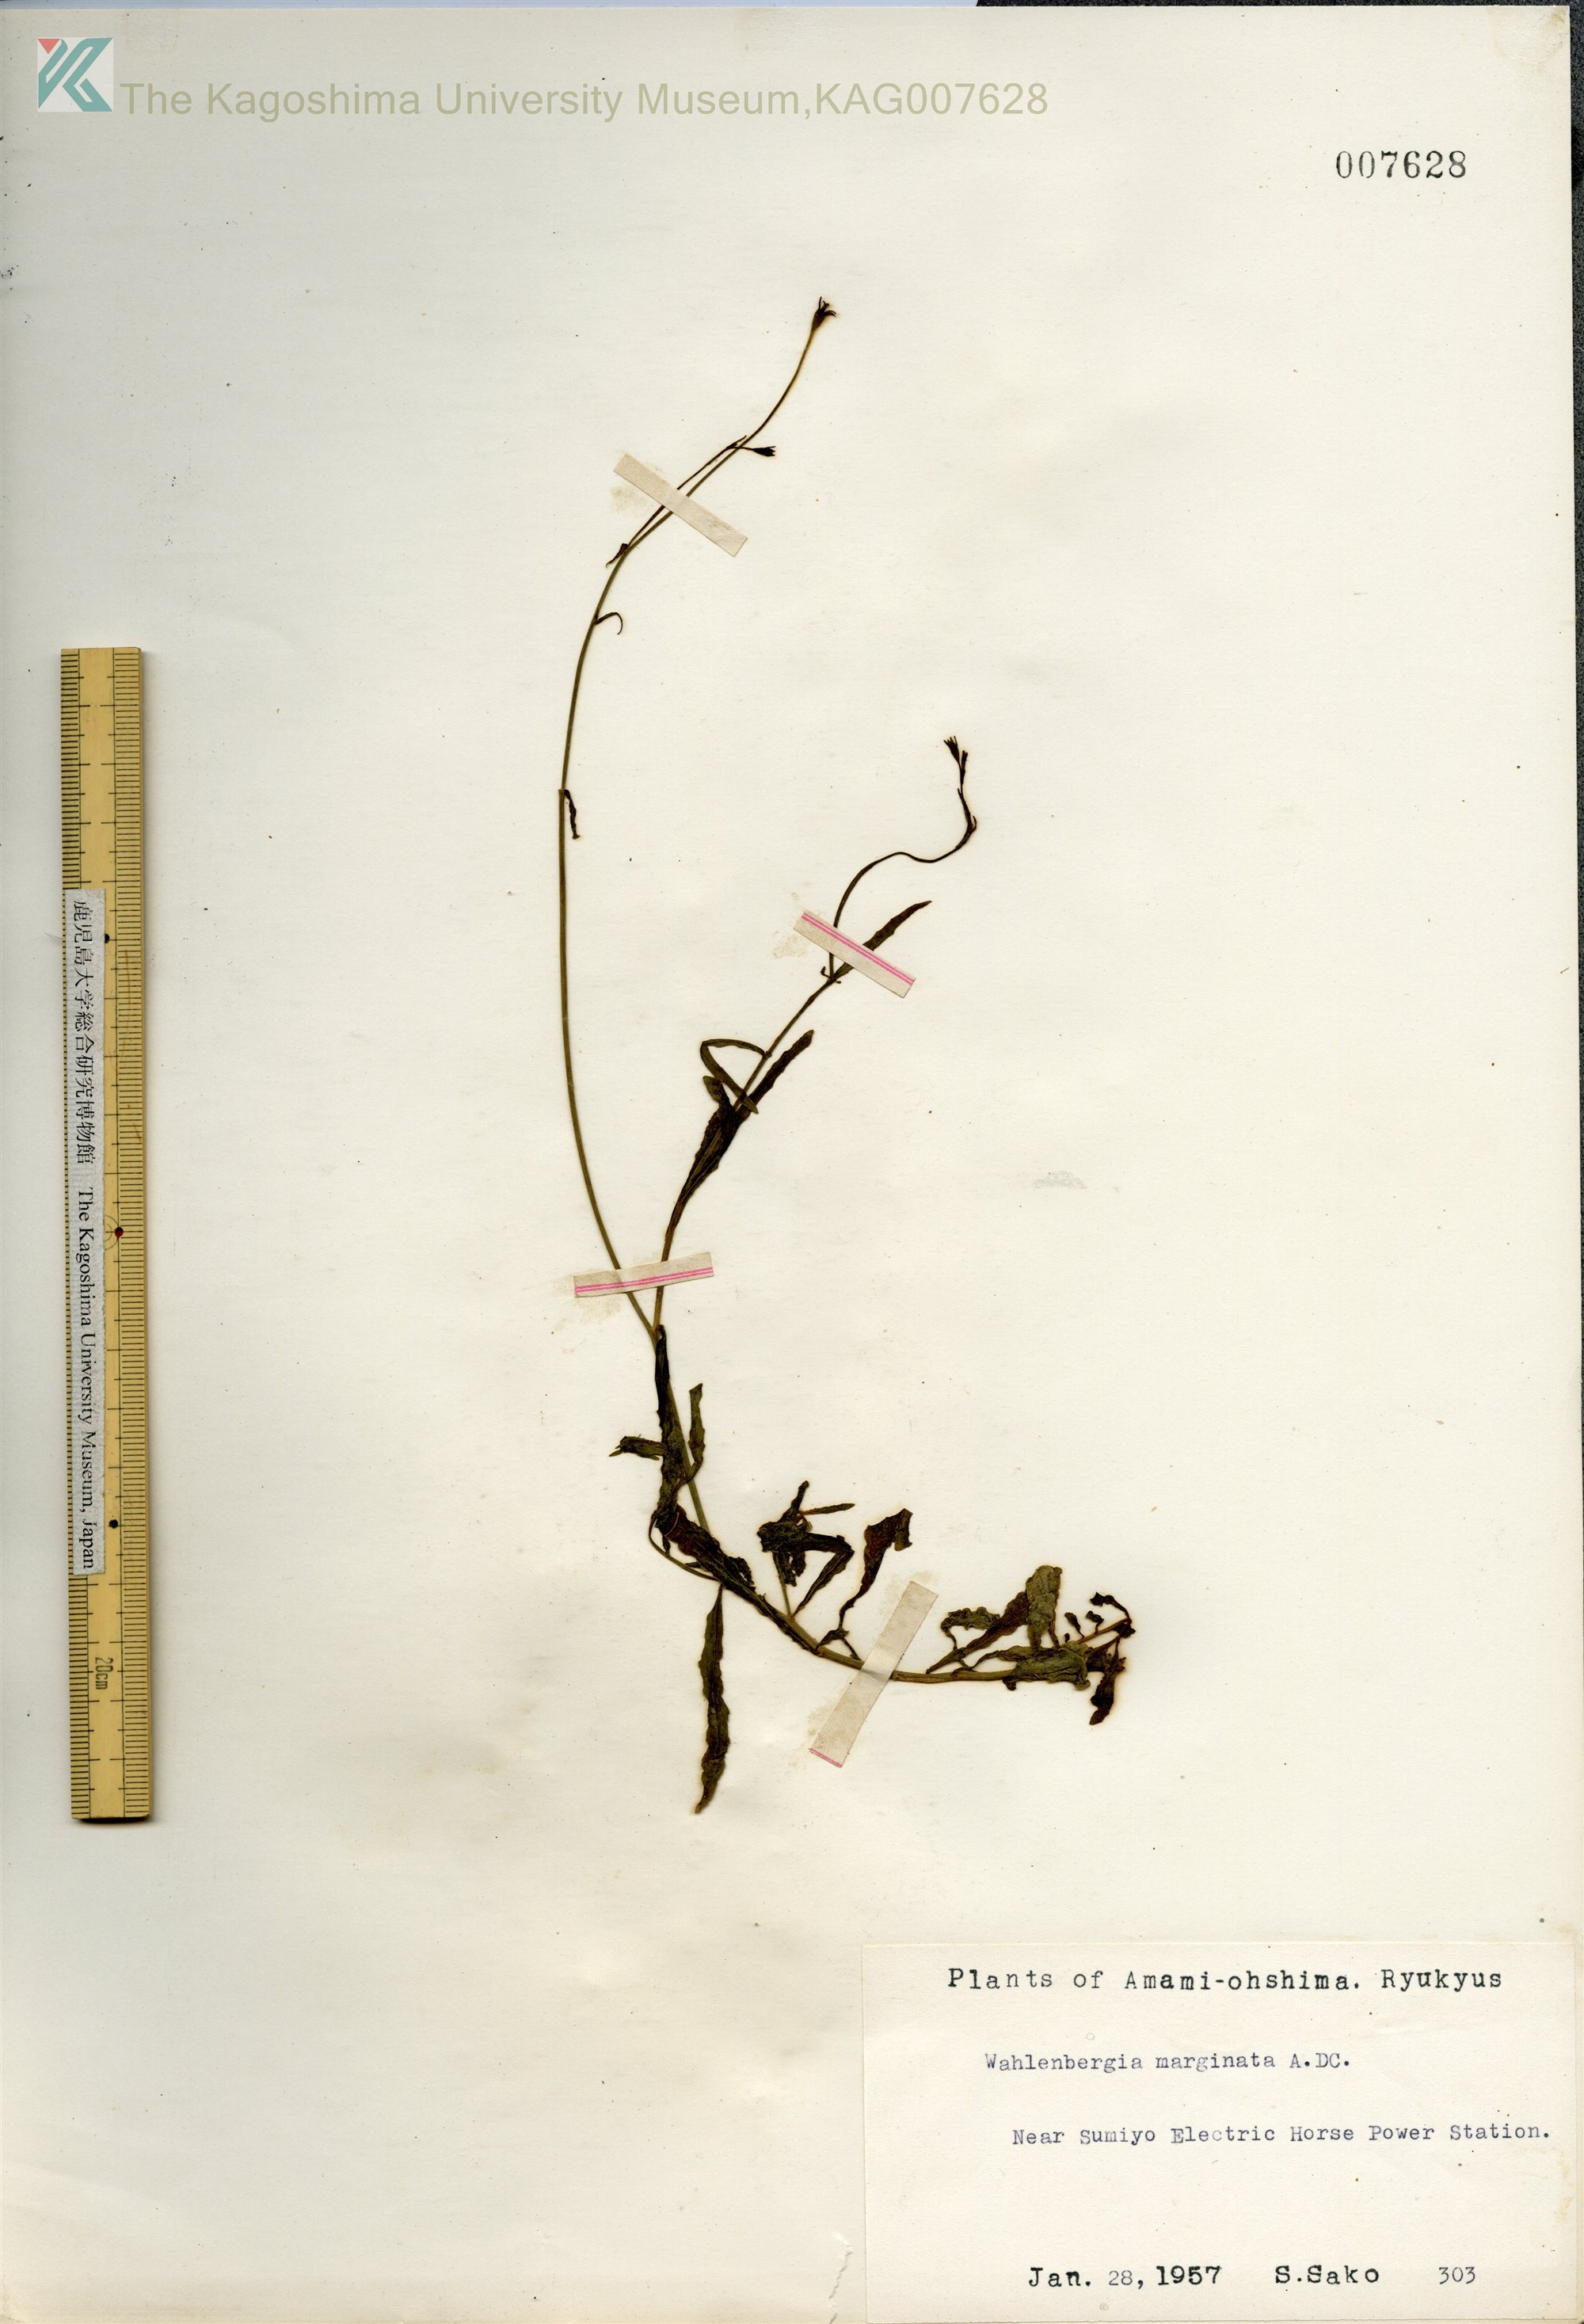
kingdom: Plantae
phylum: Tracheophyta
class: Magnoliopsida
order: Asterales
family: Campanulaceae
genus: Wahlenbergia
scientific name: Wahlenbergia marginata
